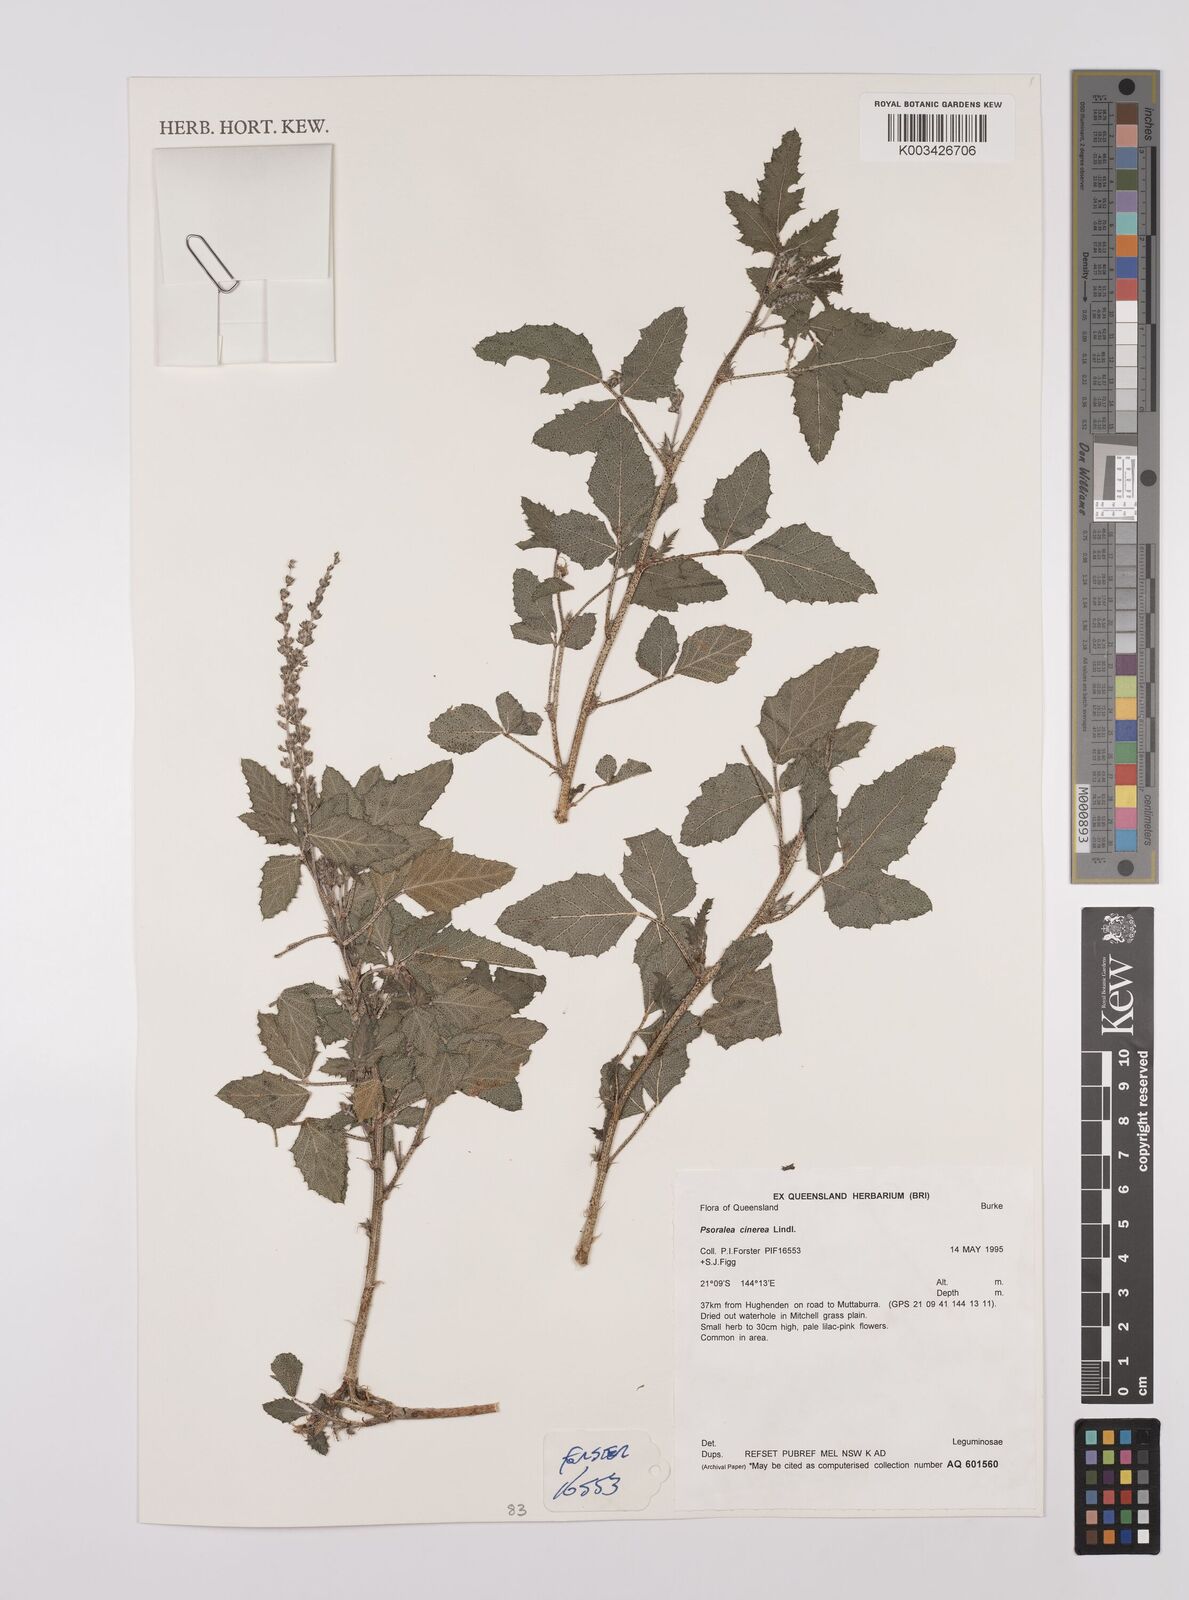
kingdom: Plantae
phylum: Tracheophyta
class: Magnoliopsida
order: Fabales
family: Fabaceae
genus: Cullen
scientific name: Cullen cinereum
